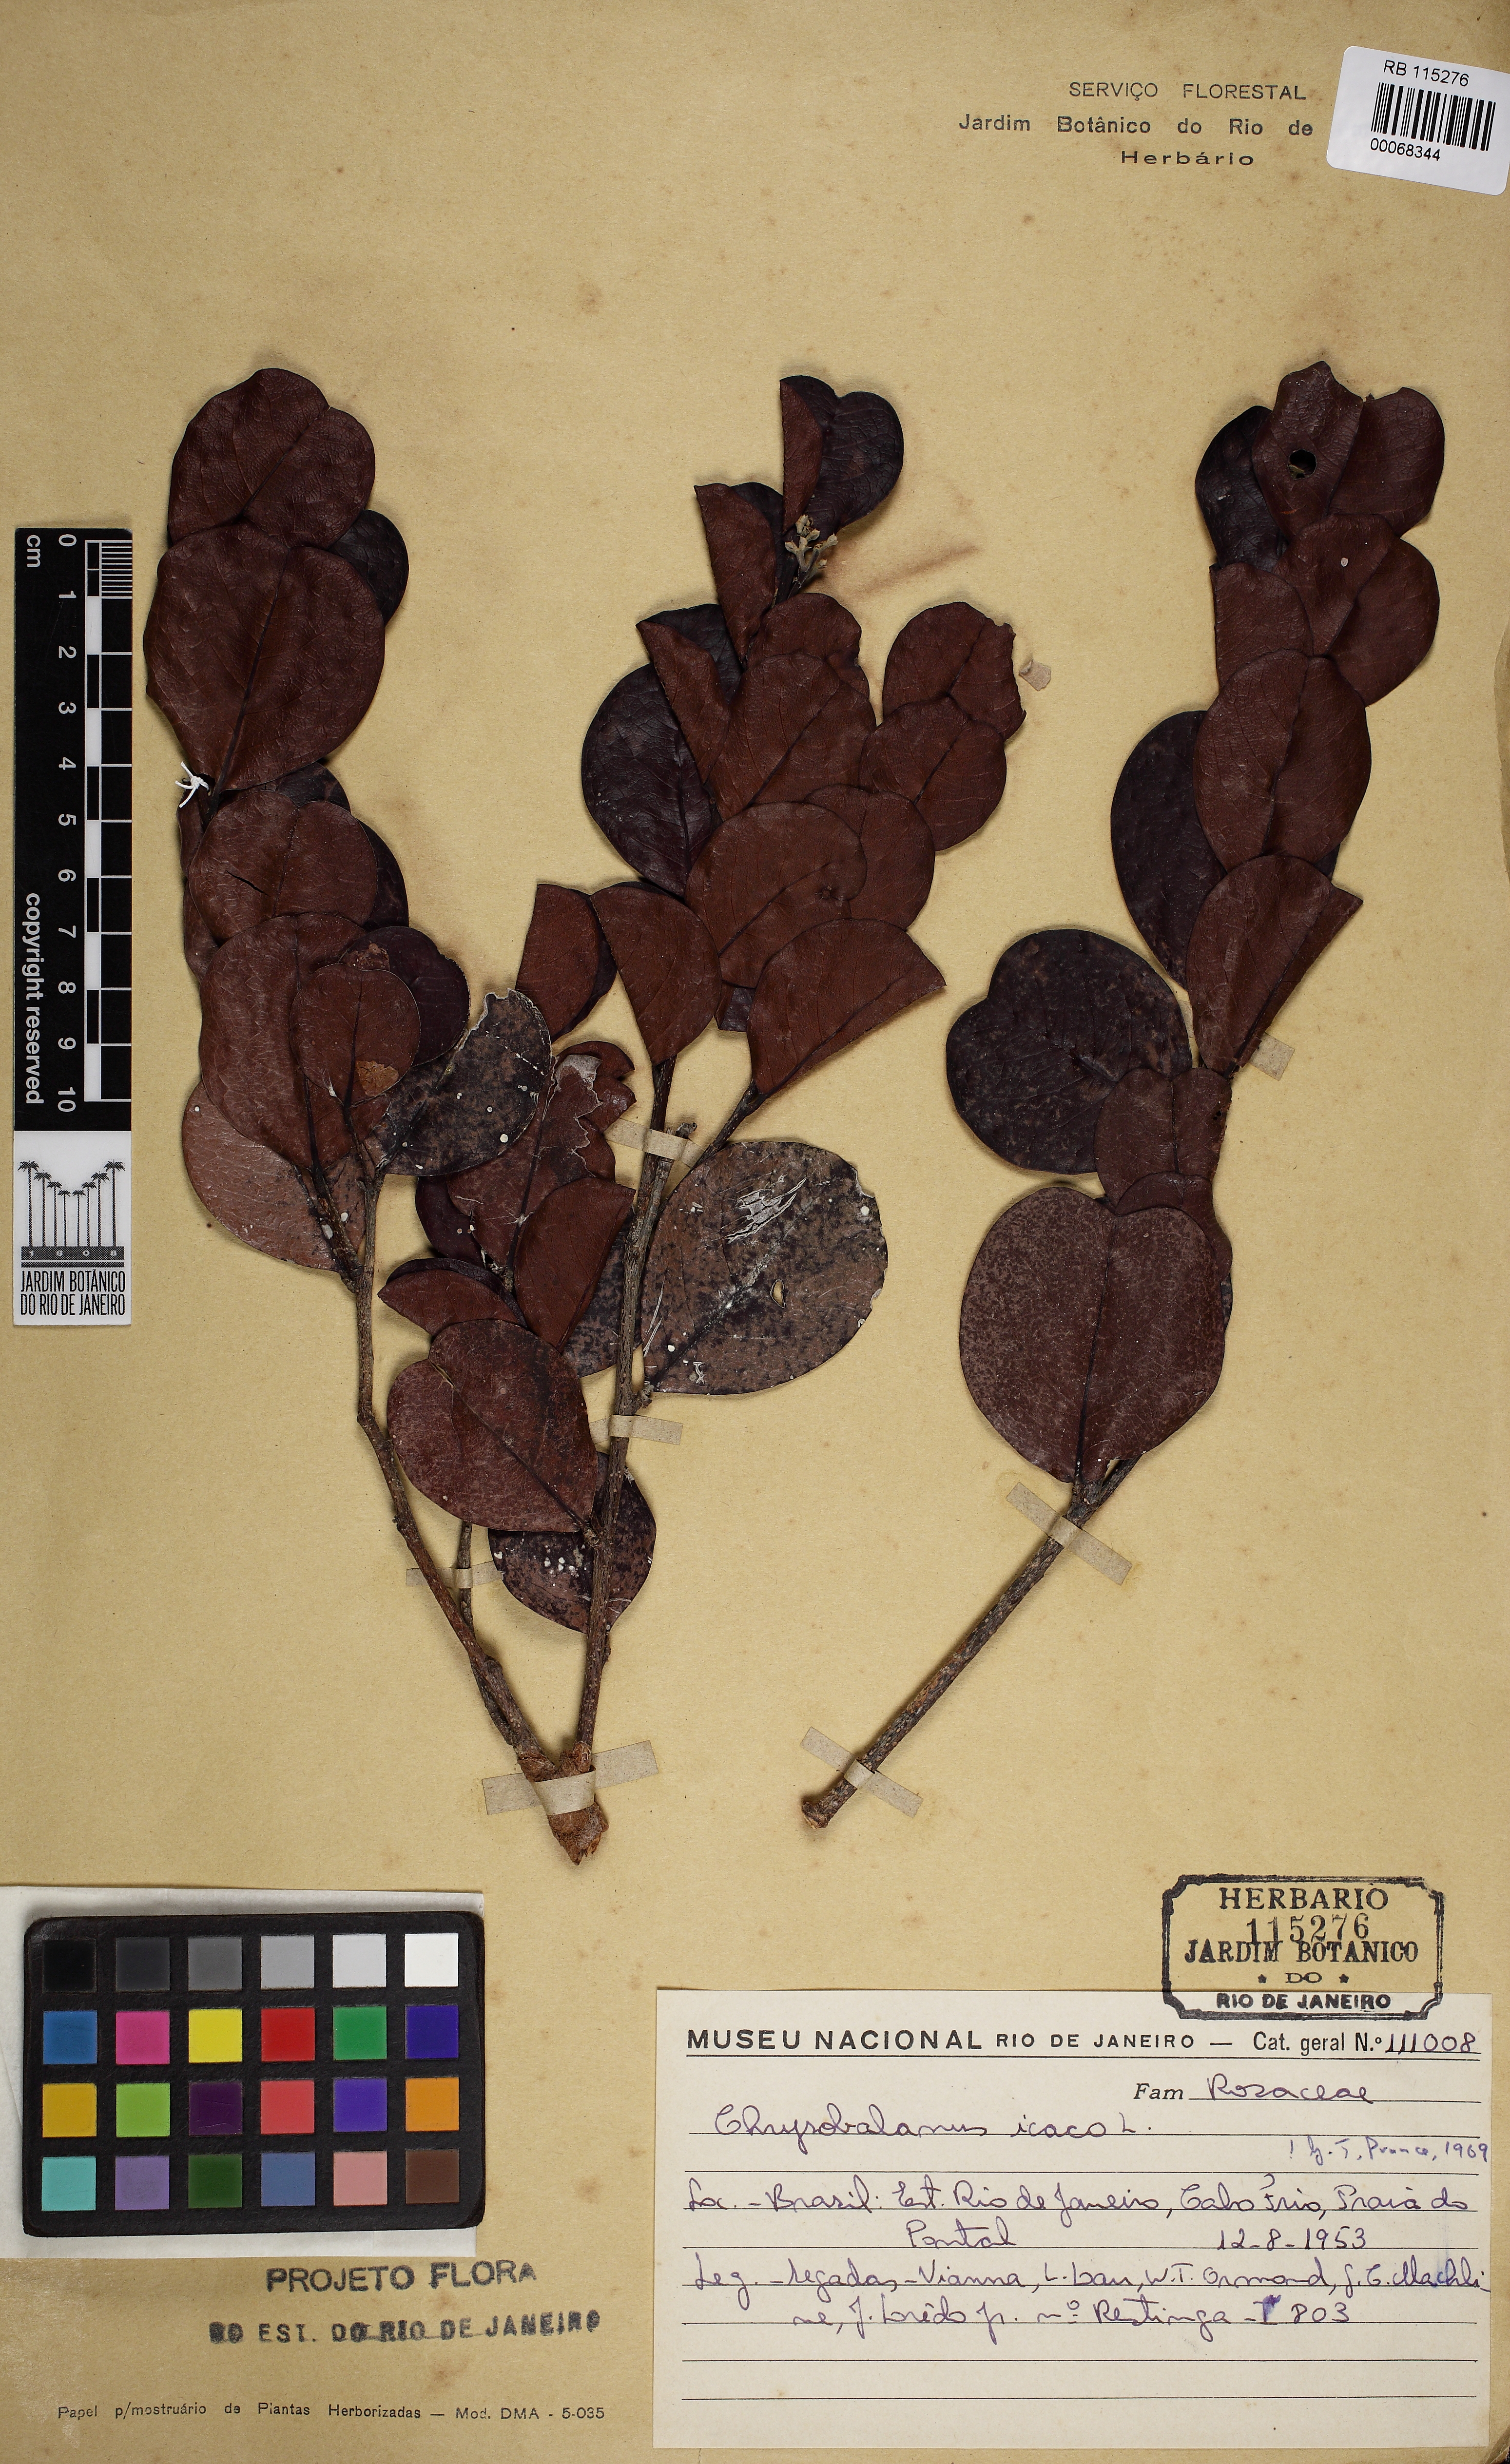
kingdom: Plantae
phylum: Tracheophyta
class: Magnoliopsida
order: Malpighiales
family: Chrysobalanaceae
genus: Chrysobalanus
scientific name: Chrysobalanus icaco
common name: Coco plum
